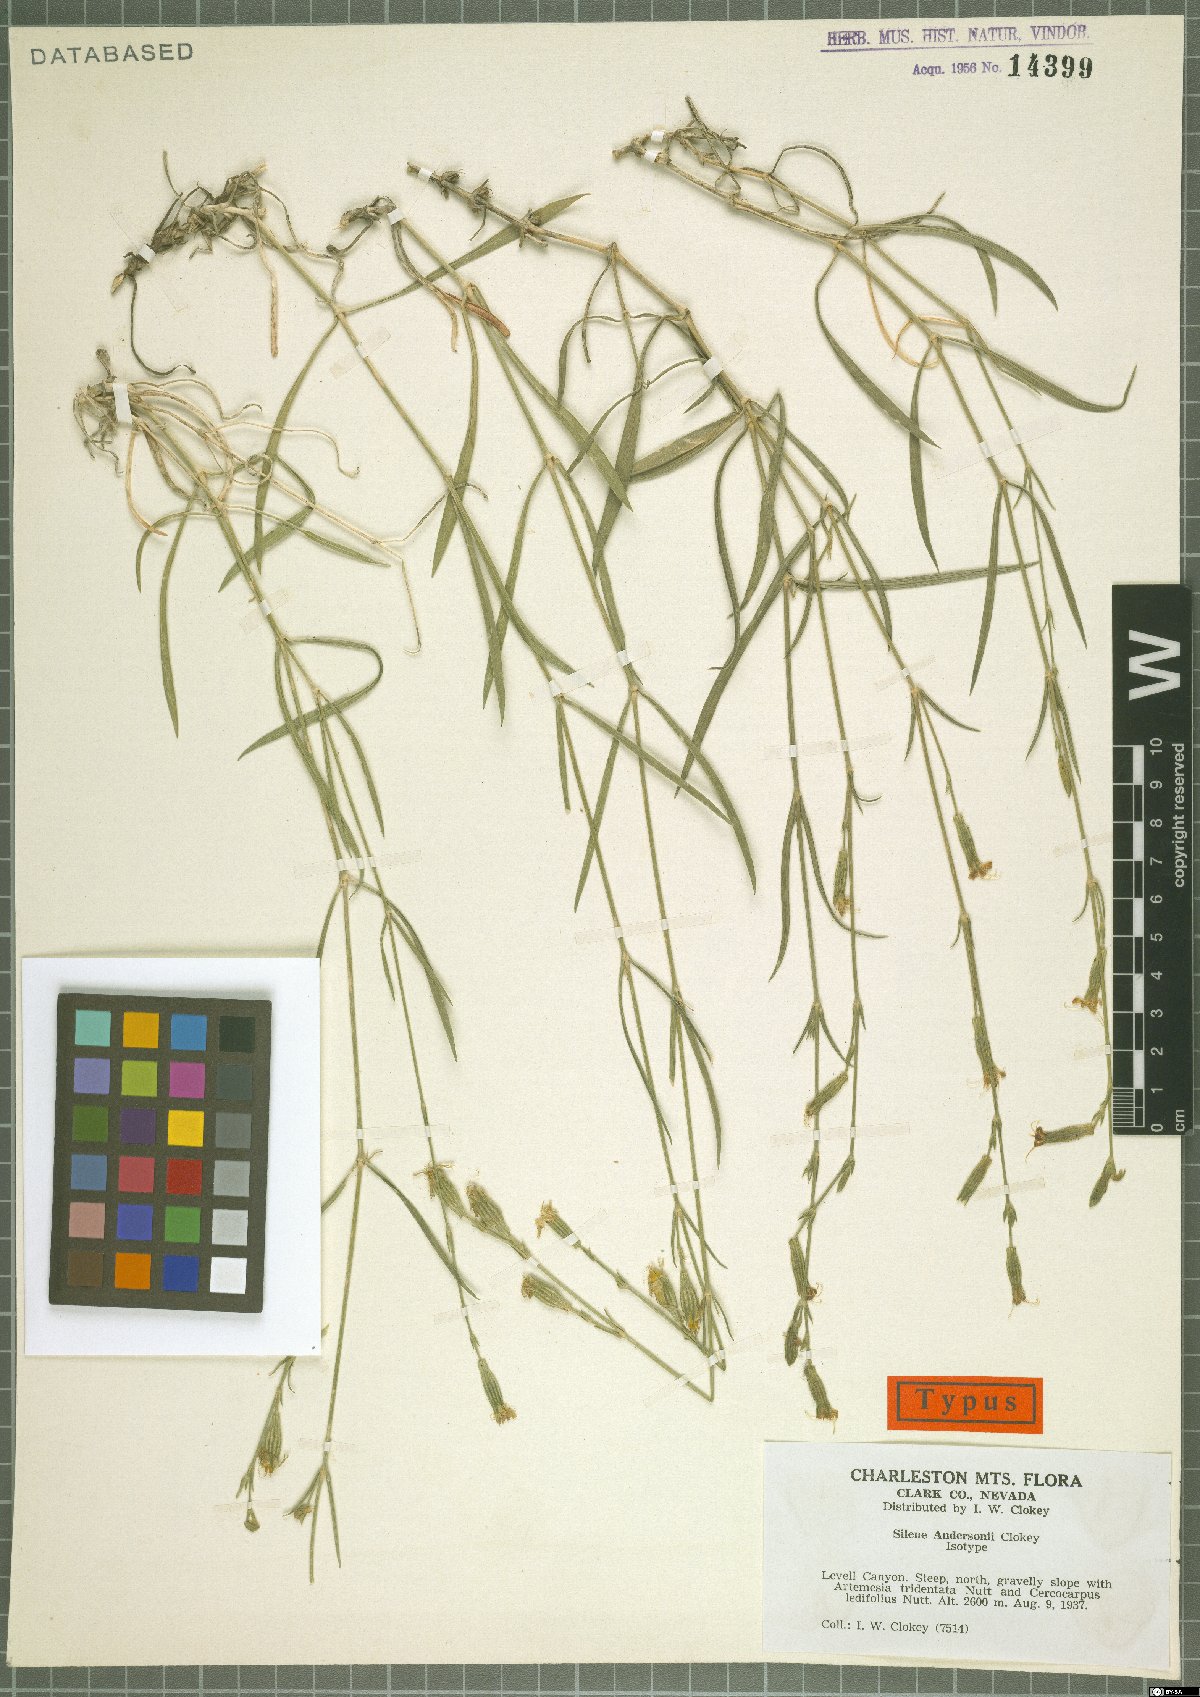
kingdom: Plantae
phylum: Tracheophyta
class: Magnoliopsida
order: Caryophyllales
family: Caryophyllaceae
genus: Silene
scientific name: Silene verecunda
